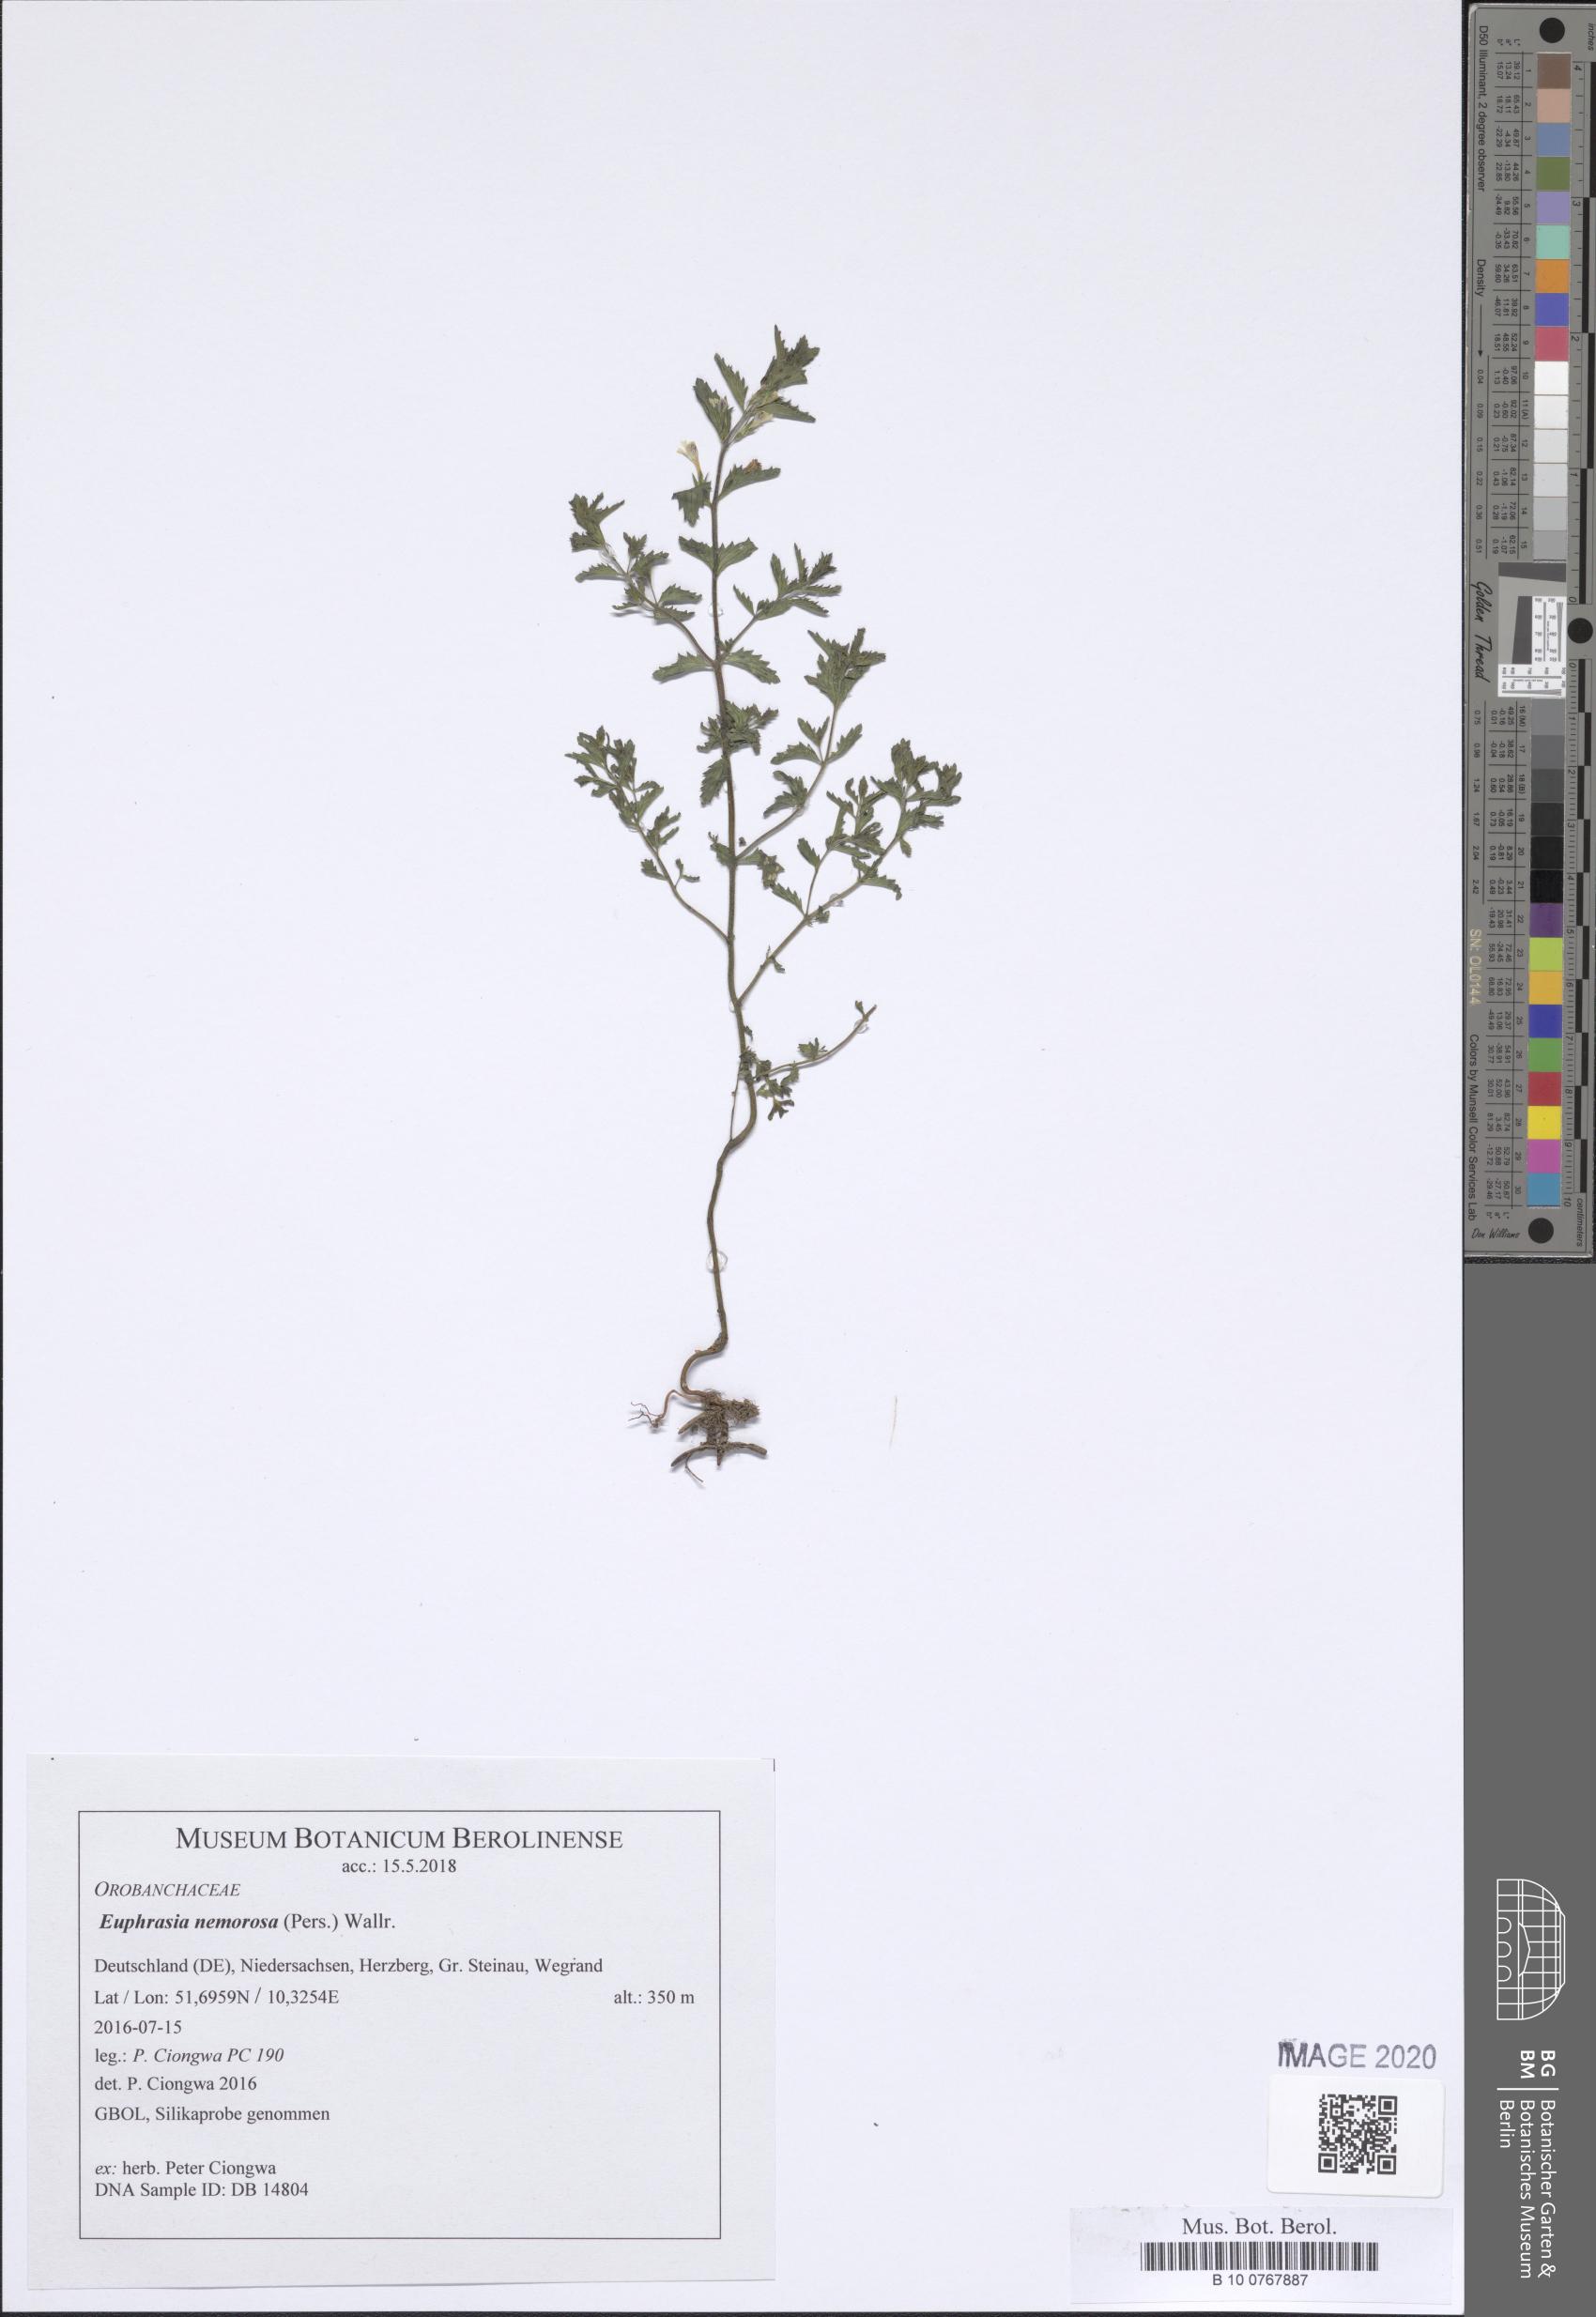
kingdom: Plantae
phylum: Tracheophyta
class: Magnoliopsida
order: Lamiales
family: Orobanchaceae
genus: Euphrasia
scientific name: Euphrasia nemorosa
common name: Common eyebright
